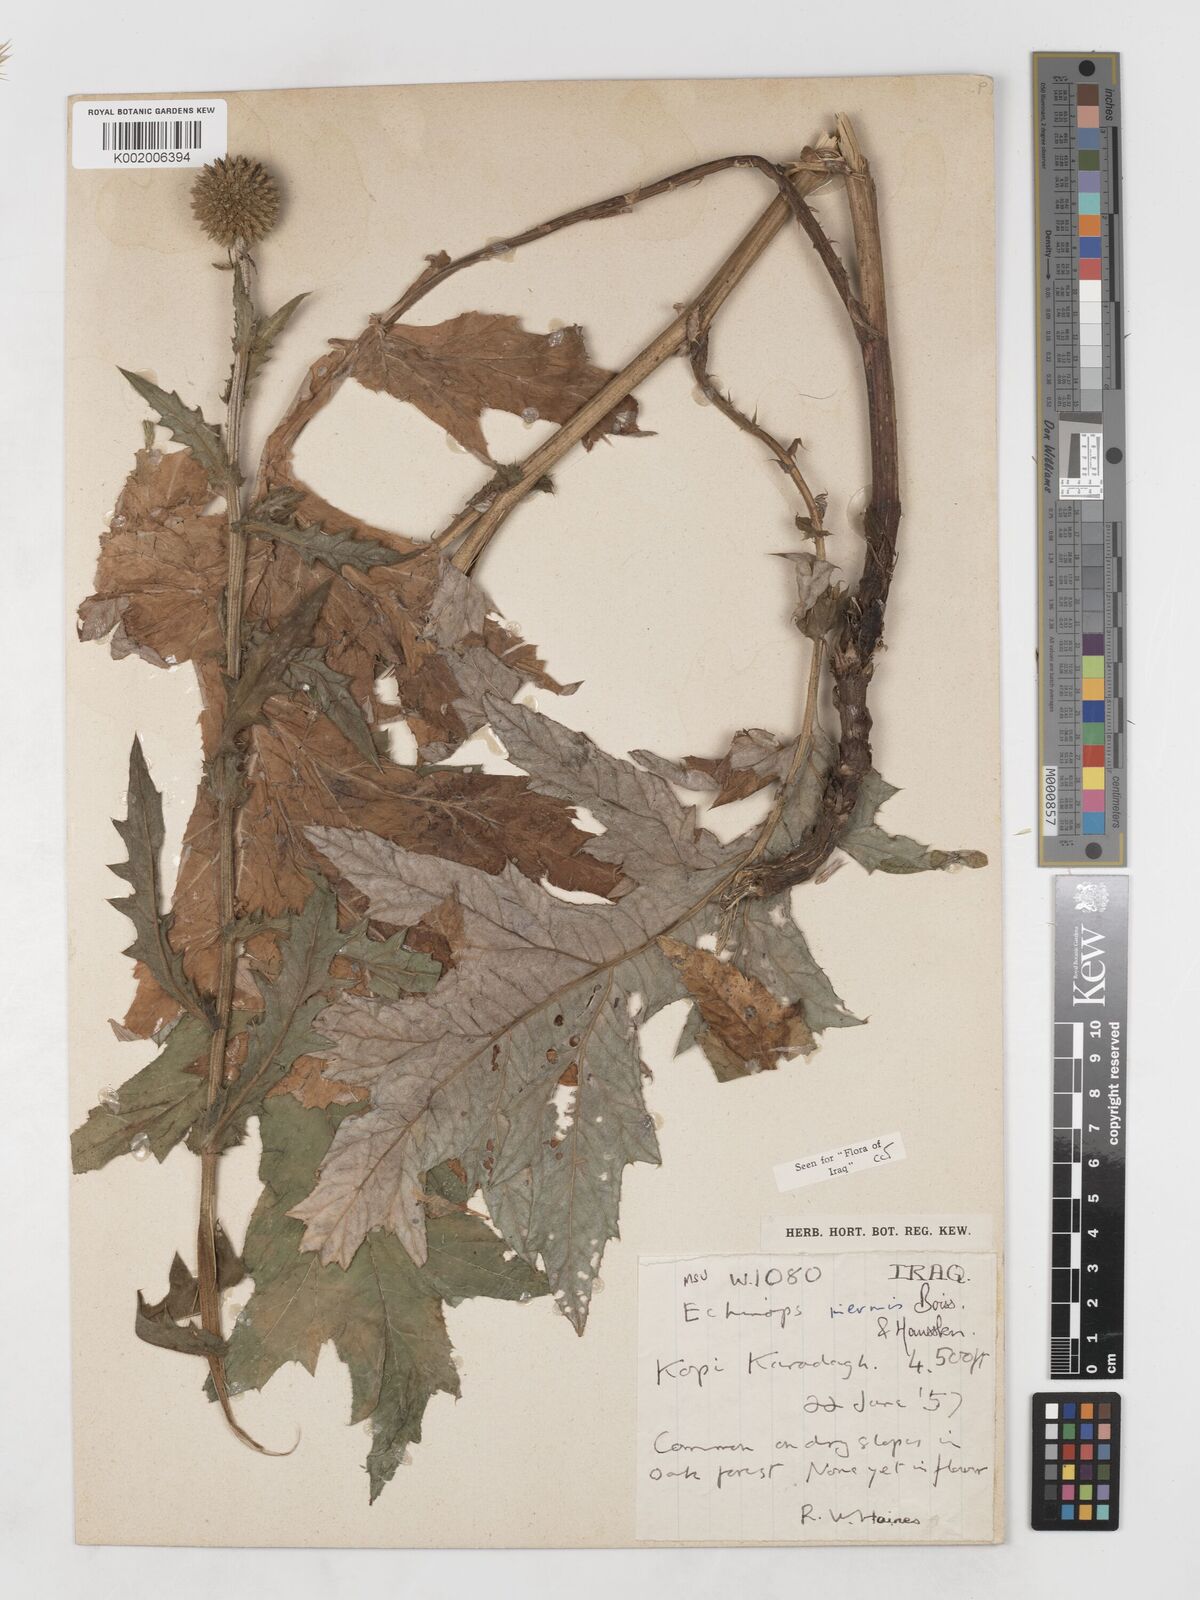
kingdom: Plantae
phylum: Tracheophyta
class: Magnoliopsida
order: Asterales
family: Asteraceae
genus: Echinops
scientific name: Echinops inermis
